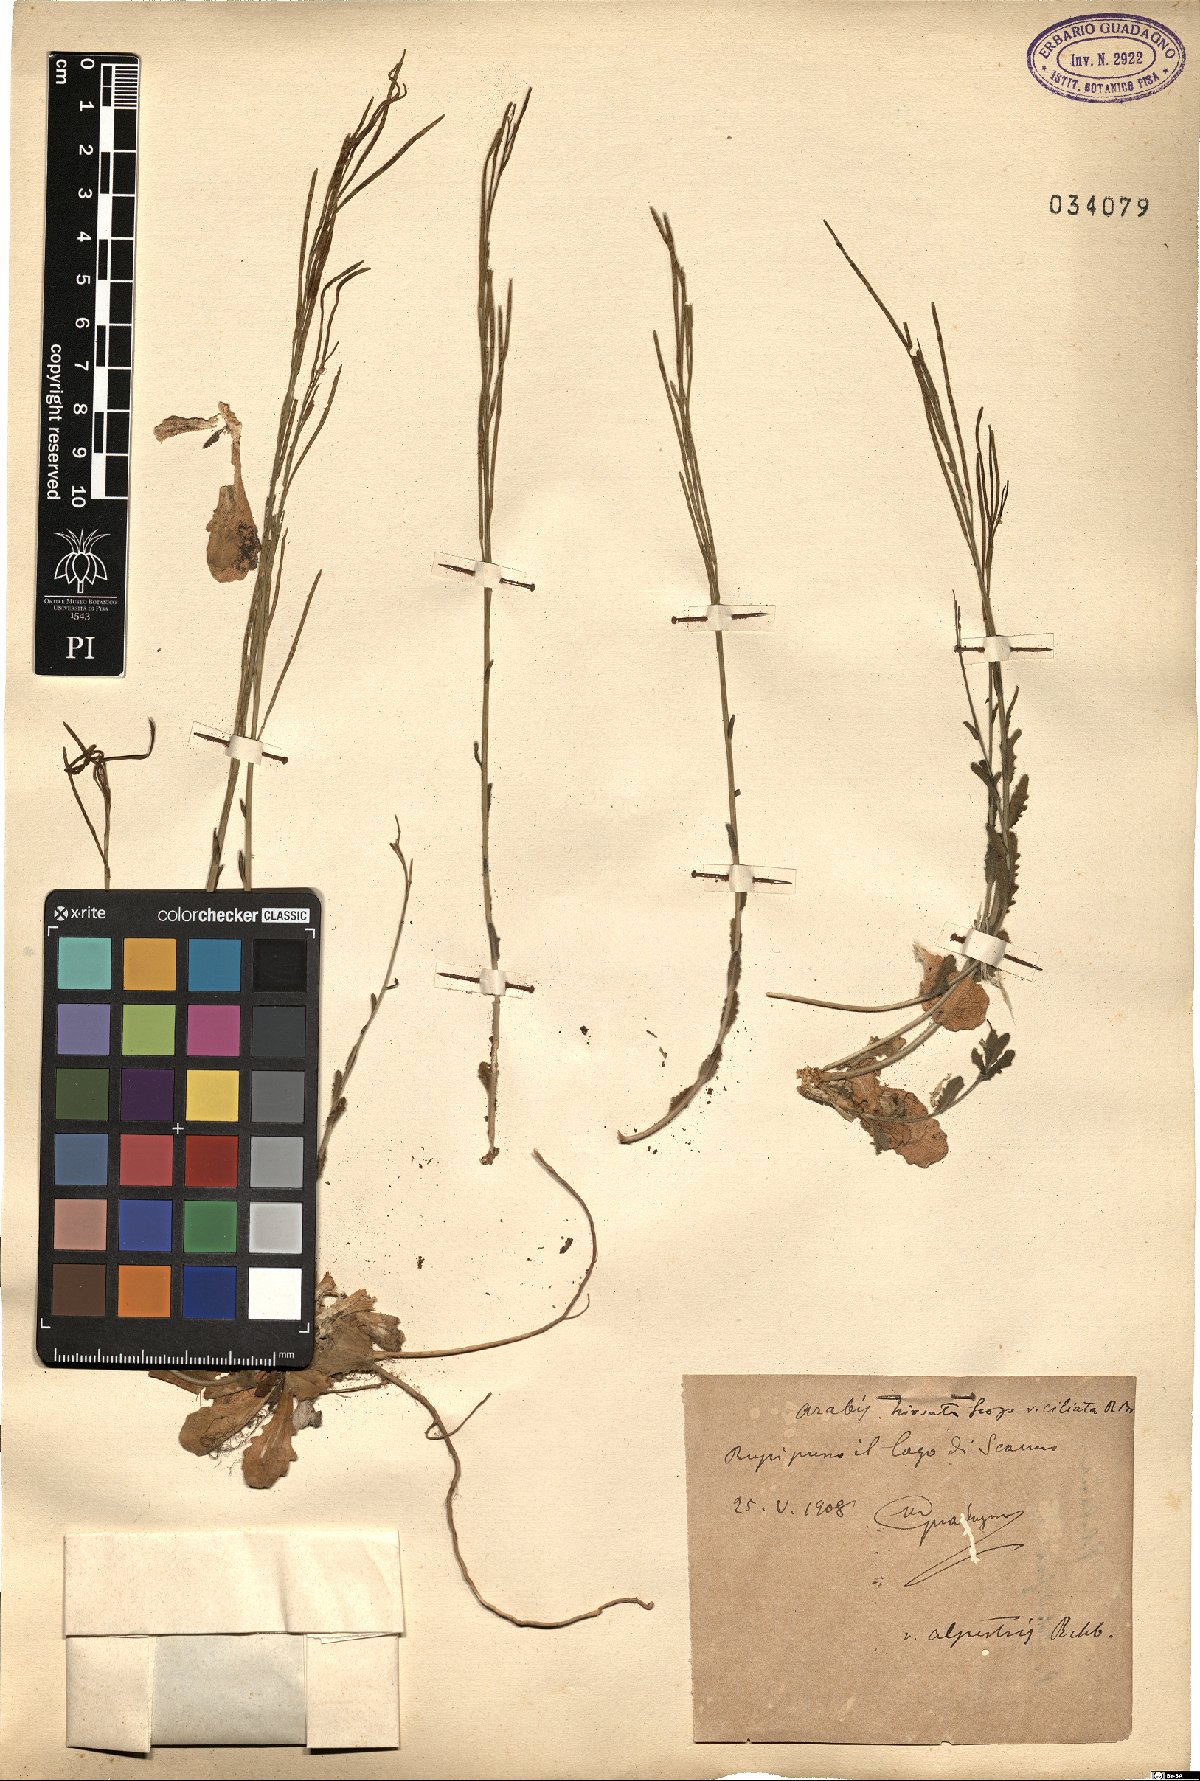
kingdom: Plantae
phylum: Tracheophyta
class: Magnoliopsida
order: Brassicales
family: Brassicaceae
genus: Arabis
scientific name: Arabis hirsuta
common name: Hairy rock-cress
